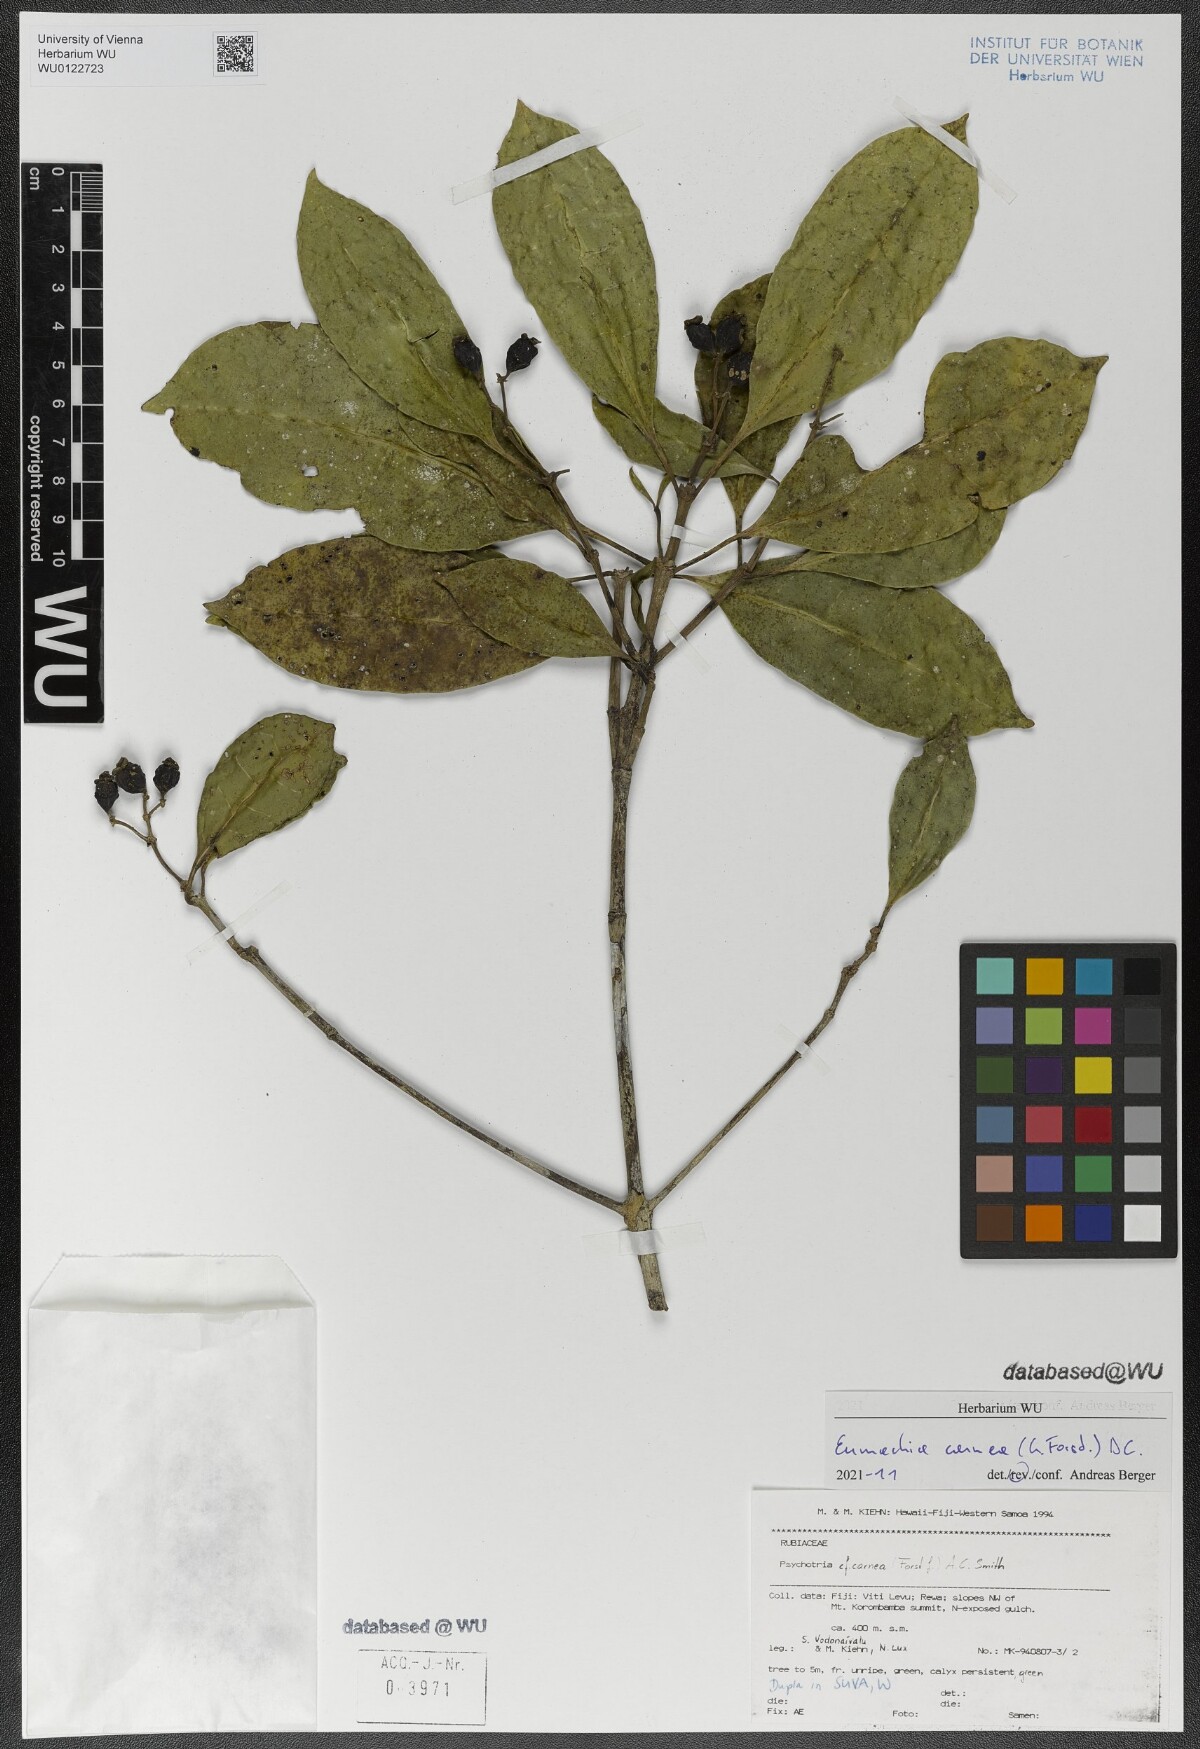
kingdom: Plantae
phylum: Tracheophyta
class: Magnoliopsida
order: Gentianales
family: Rubiaceae
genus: Eumachia
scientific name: Eumachia carnea
